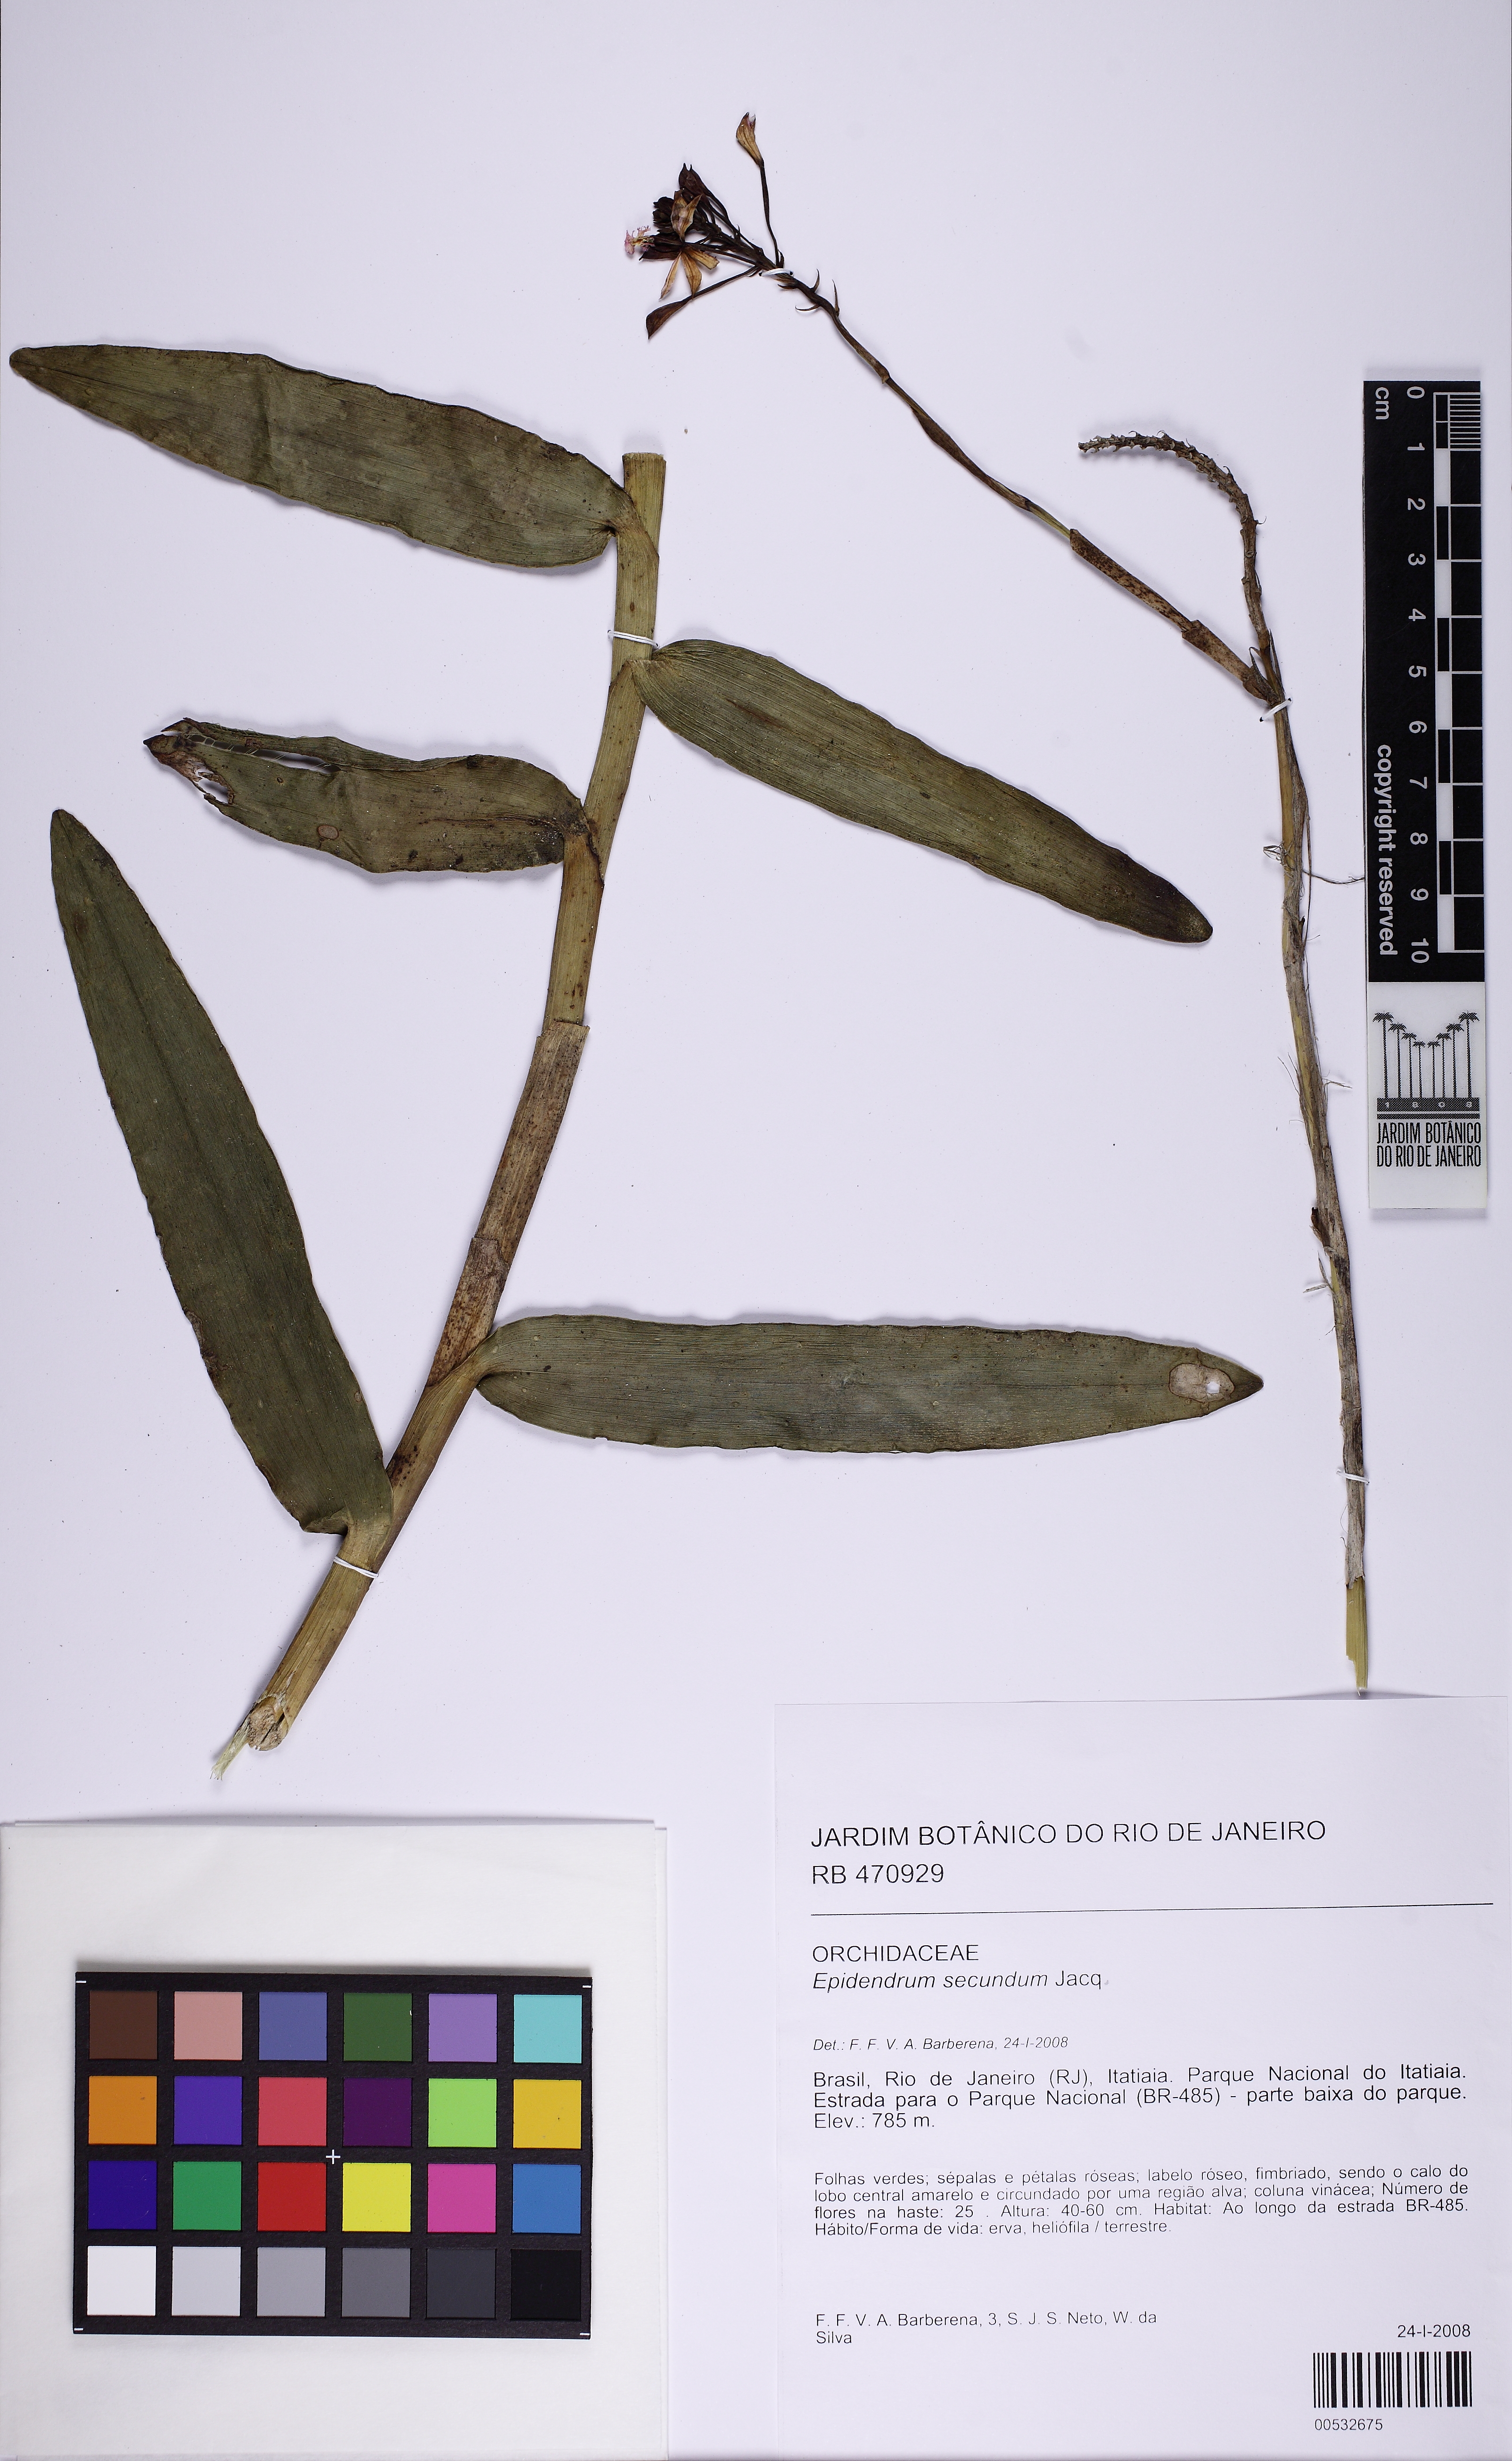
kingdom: Plantae
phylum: Tracheophyta
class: Liliopsida
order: Asparagales
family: Orchidaceae
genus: Epidendrum
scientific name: Epidendrum secundum
